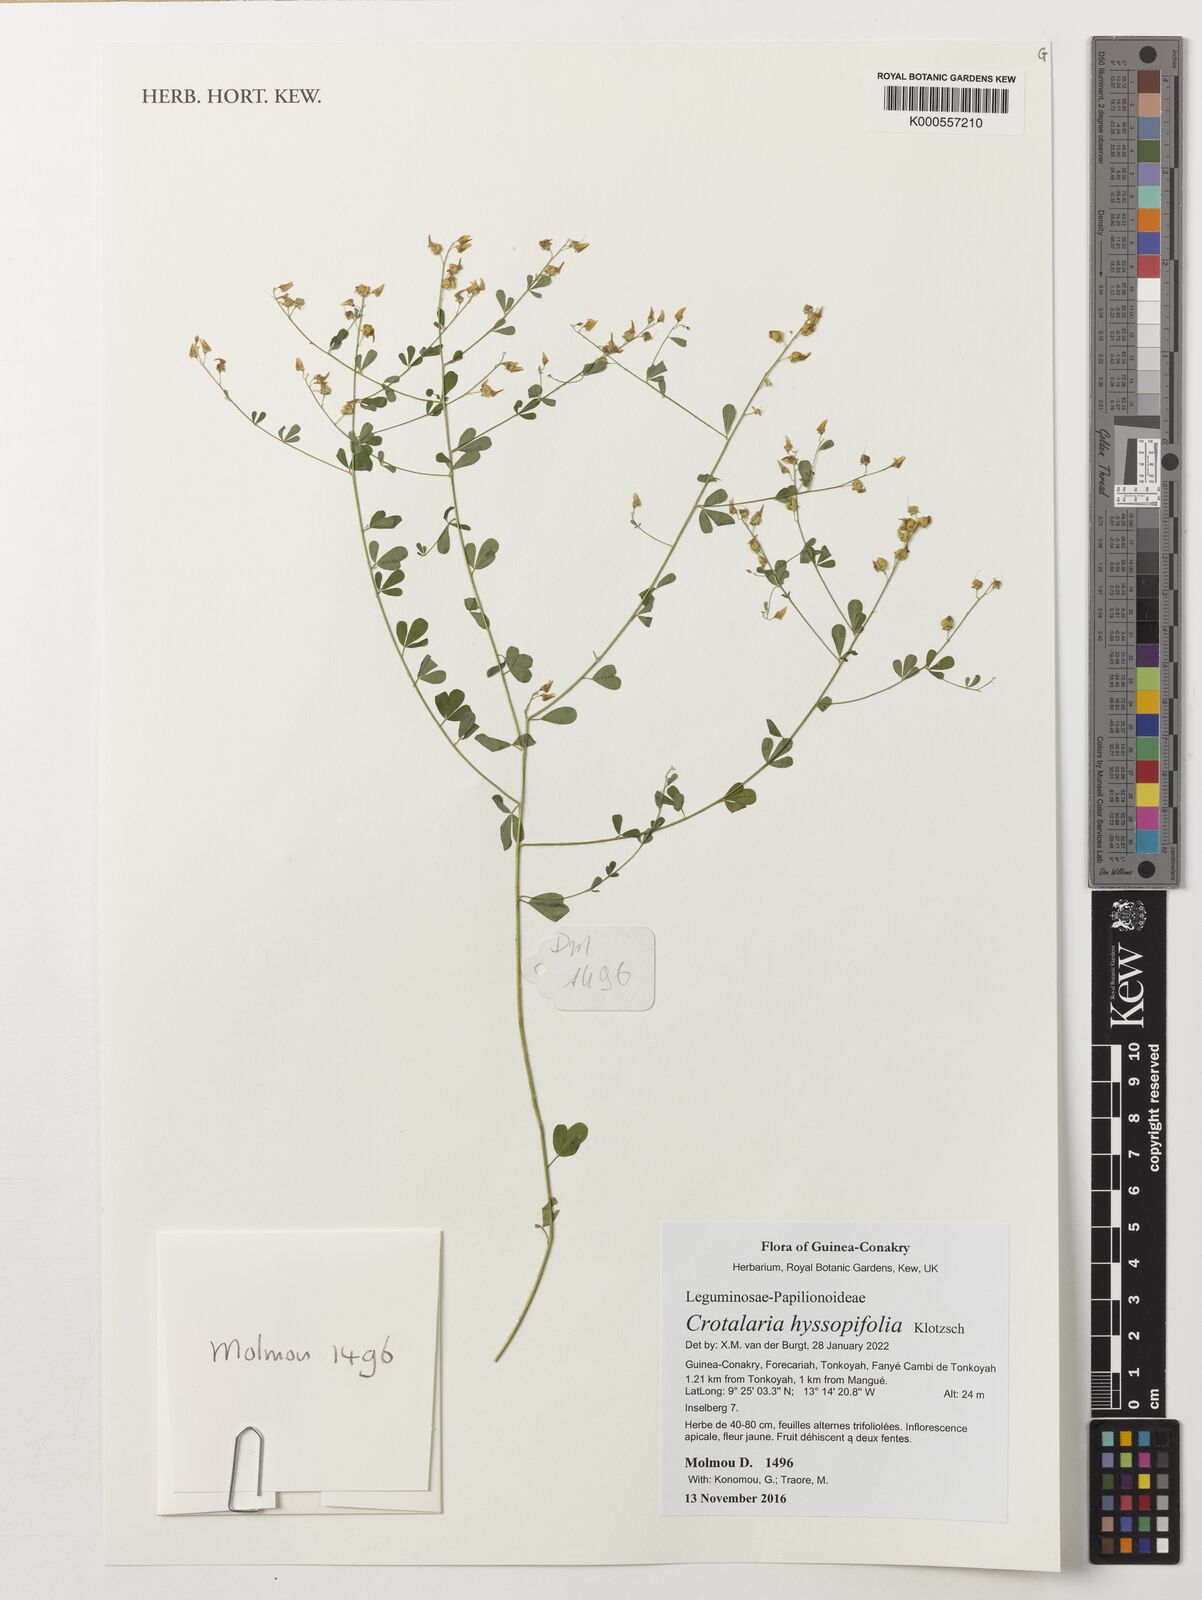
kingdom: Plantae
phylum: Tracheophyta
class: Magnoliopsida
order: Fabales
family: Fabaceae
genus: Crotalaria
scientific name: Crotalaria hyssopifolia
